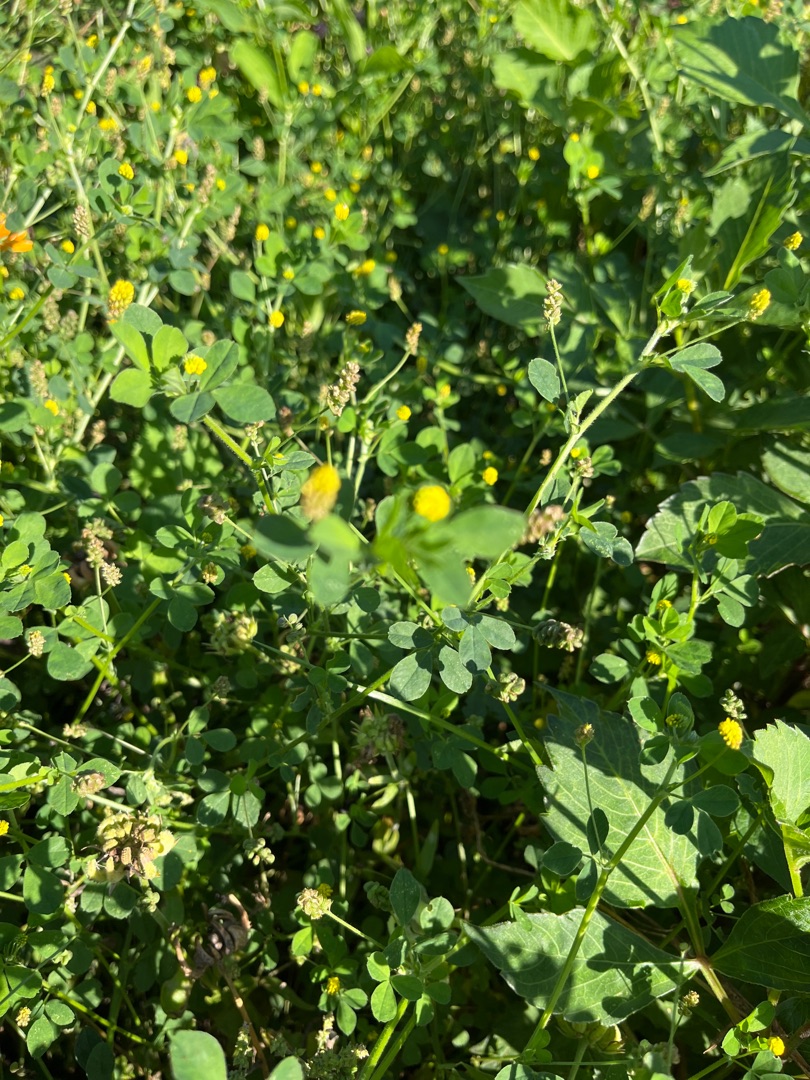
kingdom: Plantae
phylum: Tracheophyta
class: Magnoliopsida
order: Fabales
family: Fabaceae
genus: Medicago
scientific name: Medicago lupulina
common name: Humle-sneglebælg
